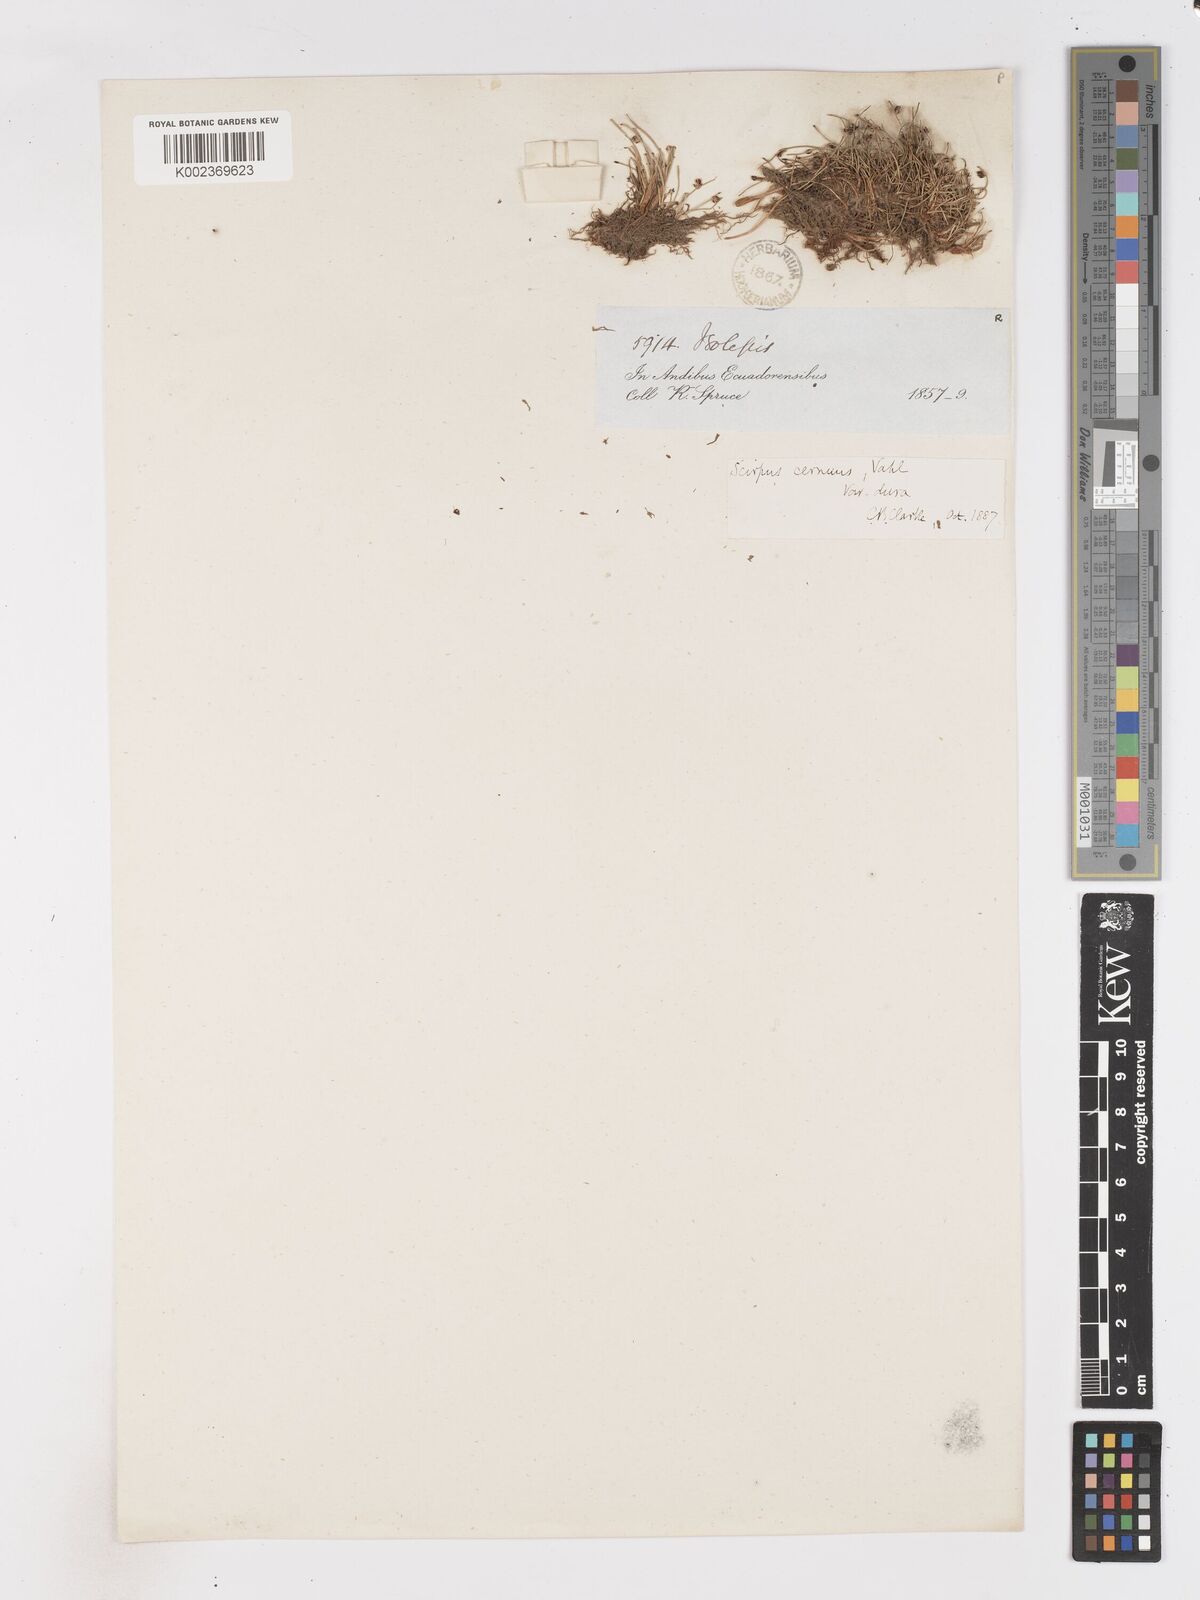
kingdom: Plantae
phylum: Tracheophyta
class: Liliopsida
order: Poales
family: Cyperaceae
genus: Isolepis
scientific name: Isolepis cernua
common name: Slender club-rush
